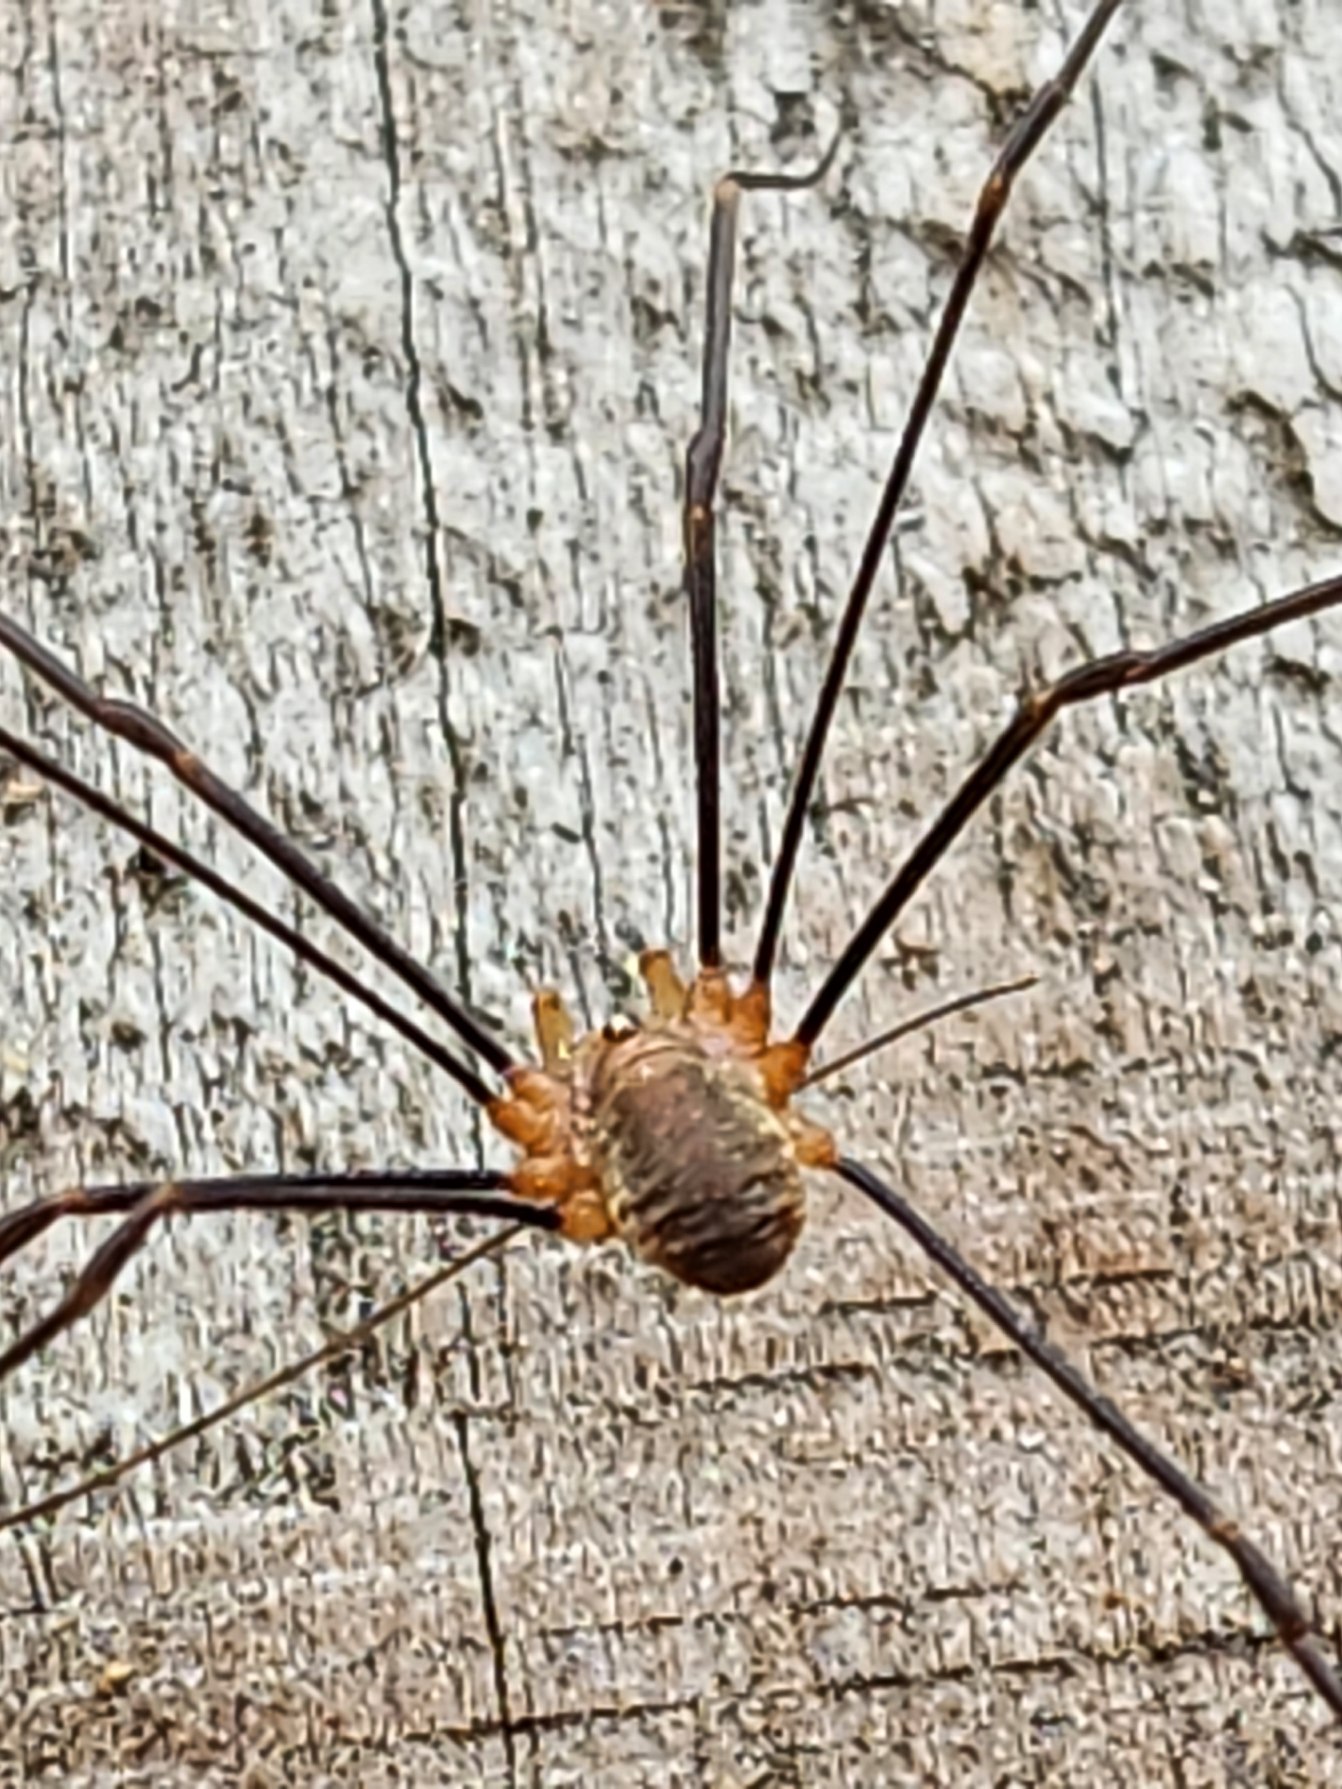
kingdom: Animalia
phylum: Arthropoda
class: Arachnida
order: Opiliones
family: Phalangiidae
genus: Opilio
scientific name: Opilio canestrinii
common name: Orange vægmejer
